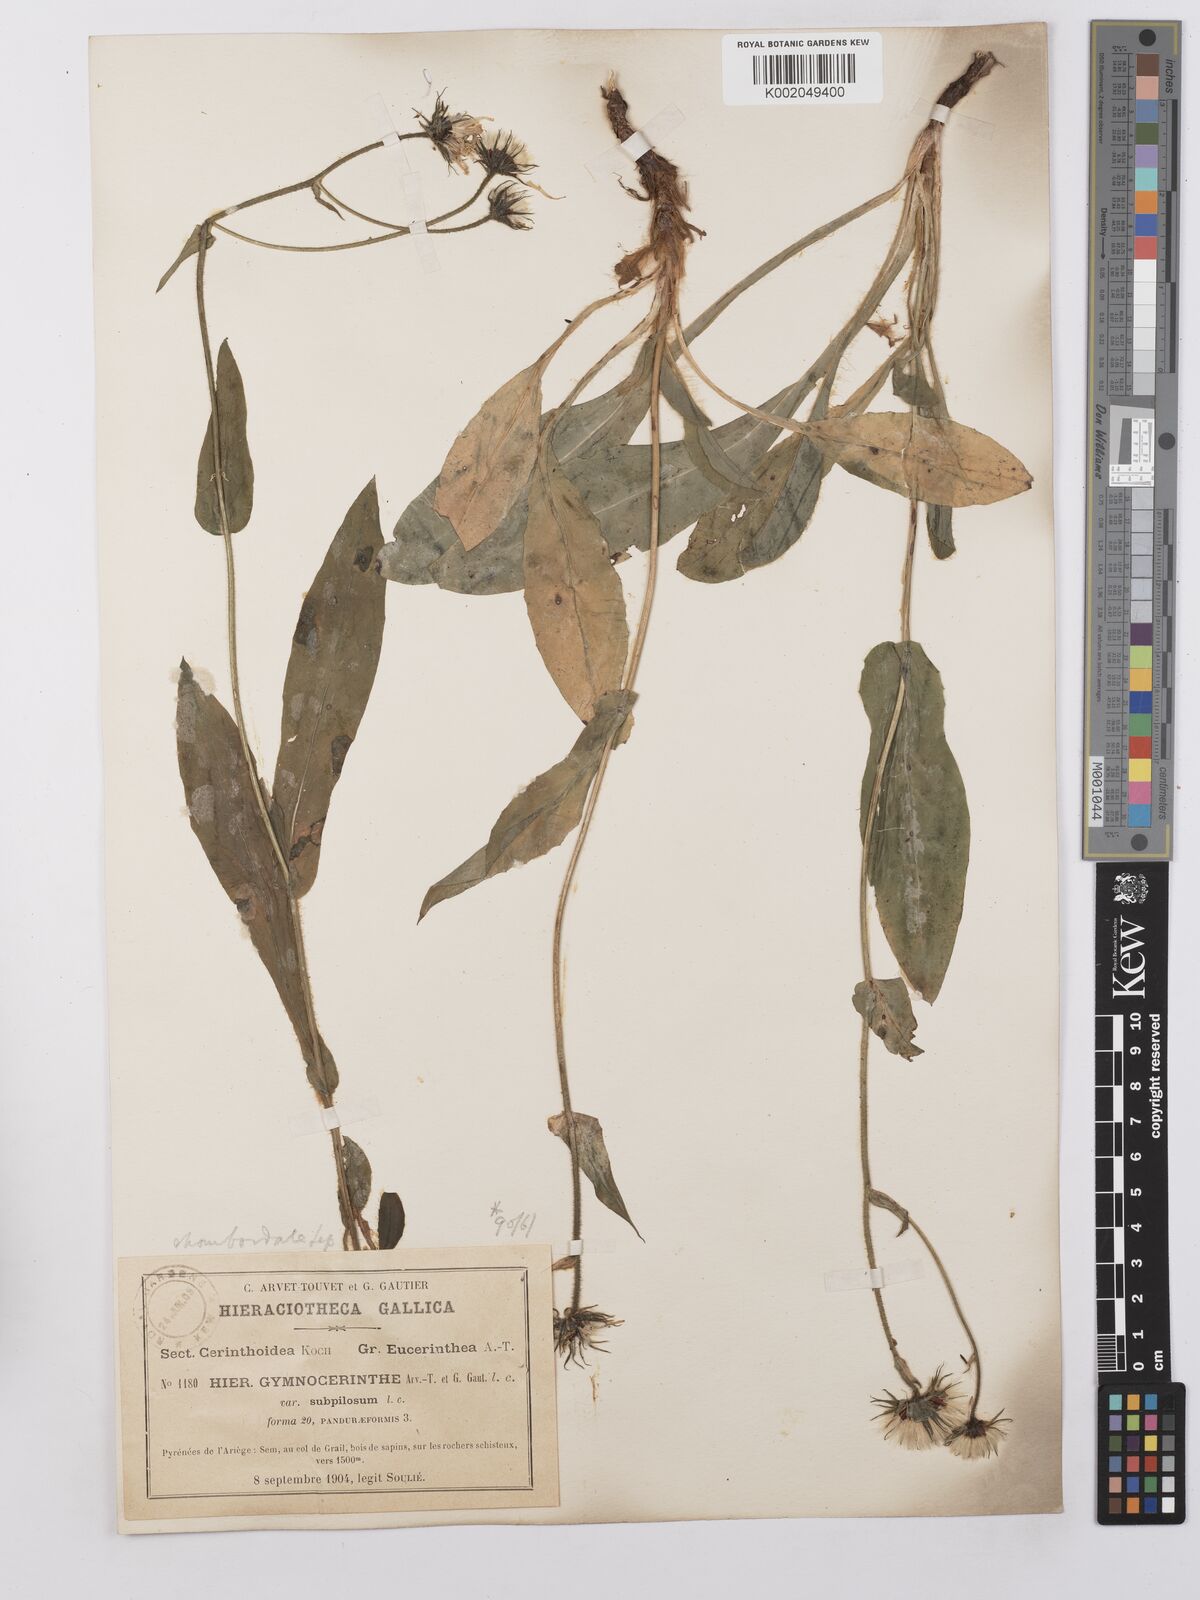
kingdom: Plantae
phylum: Tracheophyta
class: Magnoliopsida
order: Asterales
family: Asteraceae
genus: Hieracium
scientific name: Hieracium cerinthoides
